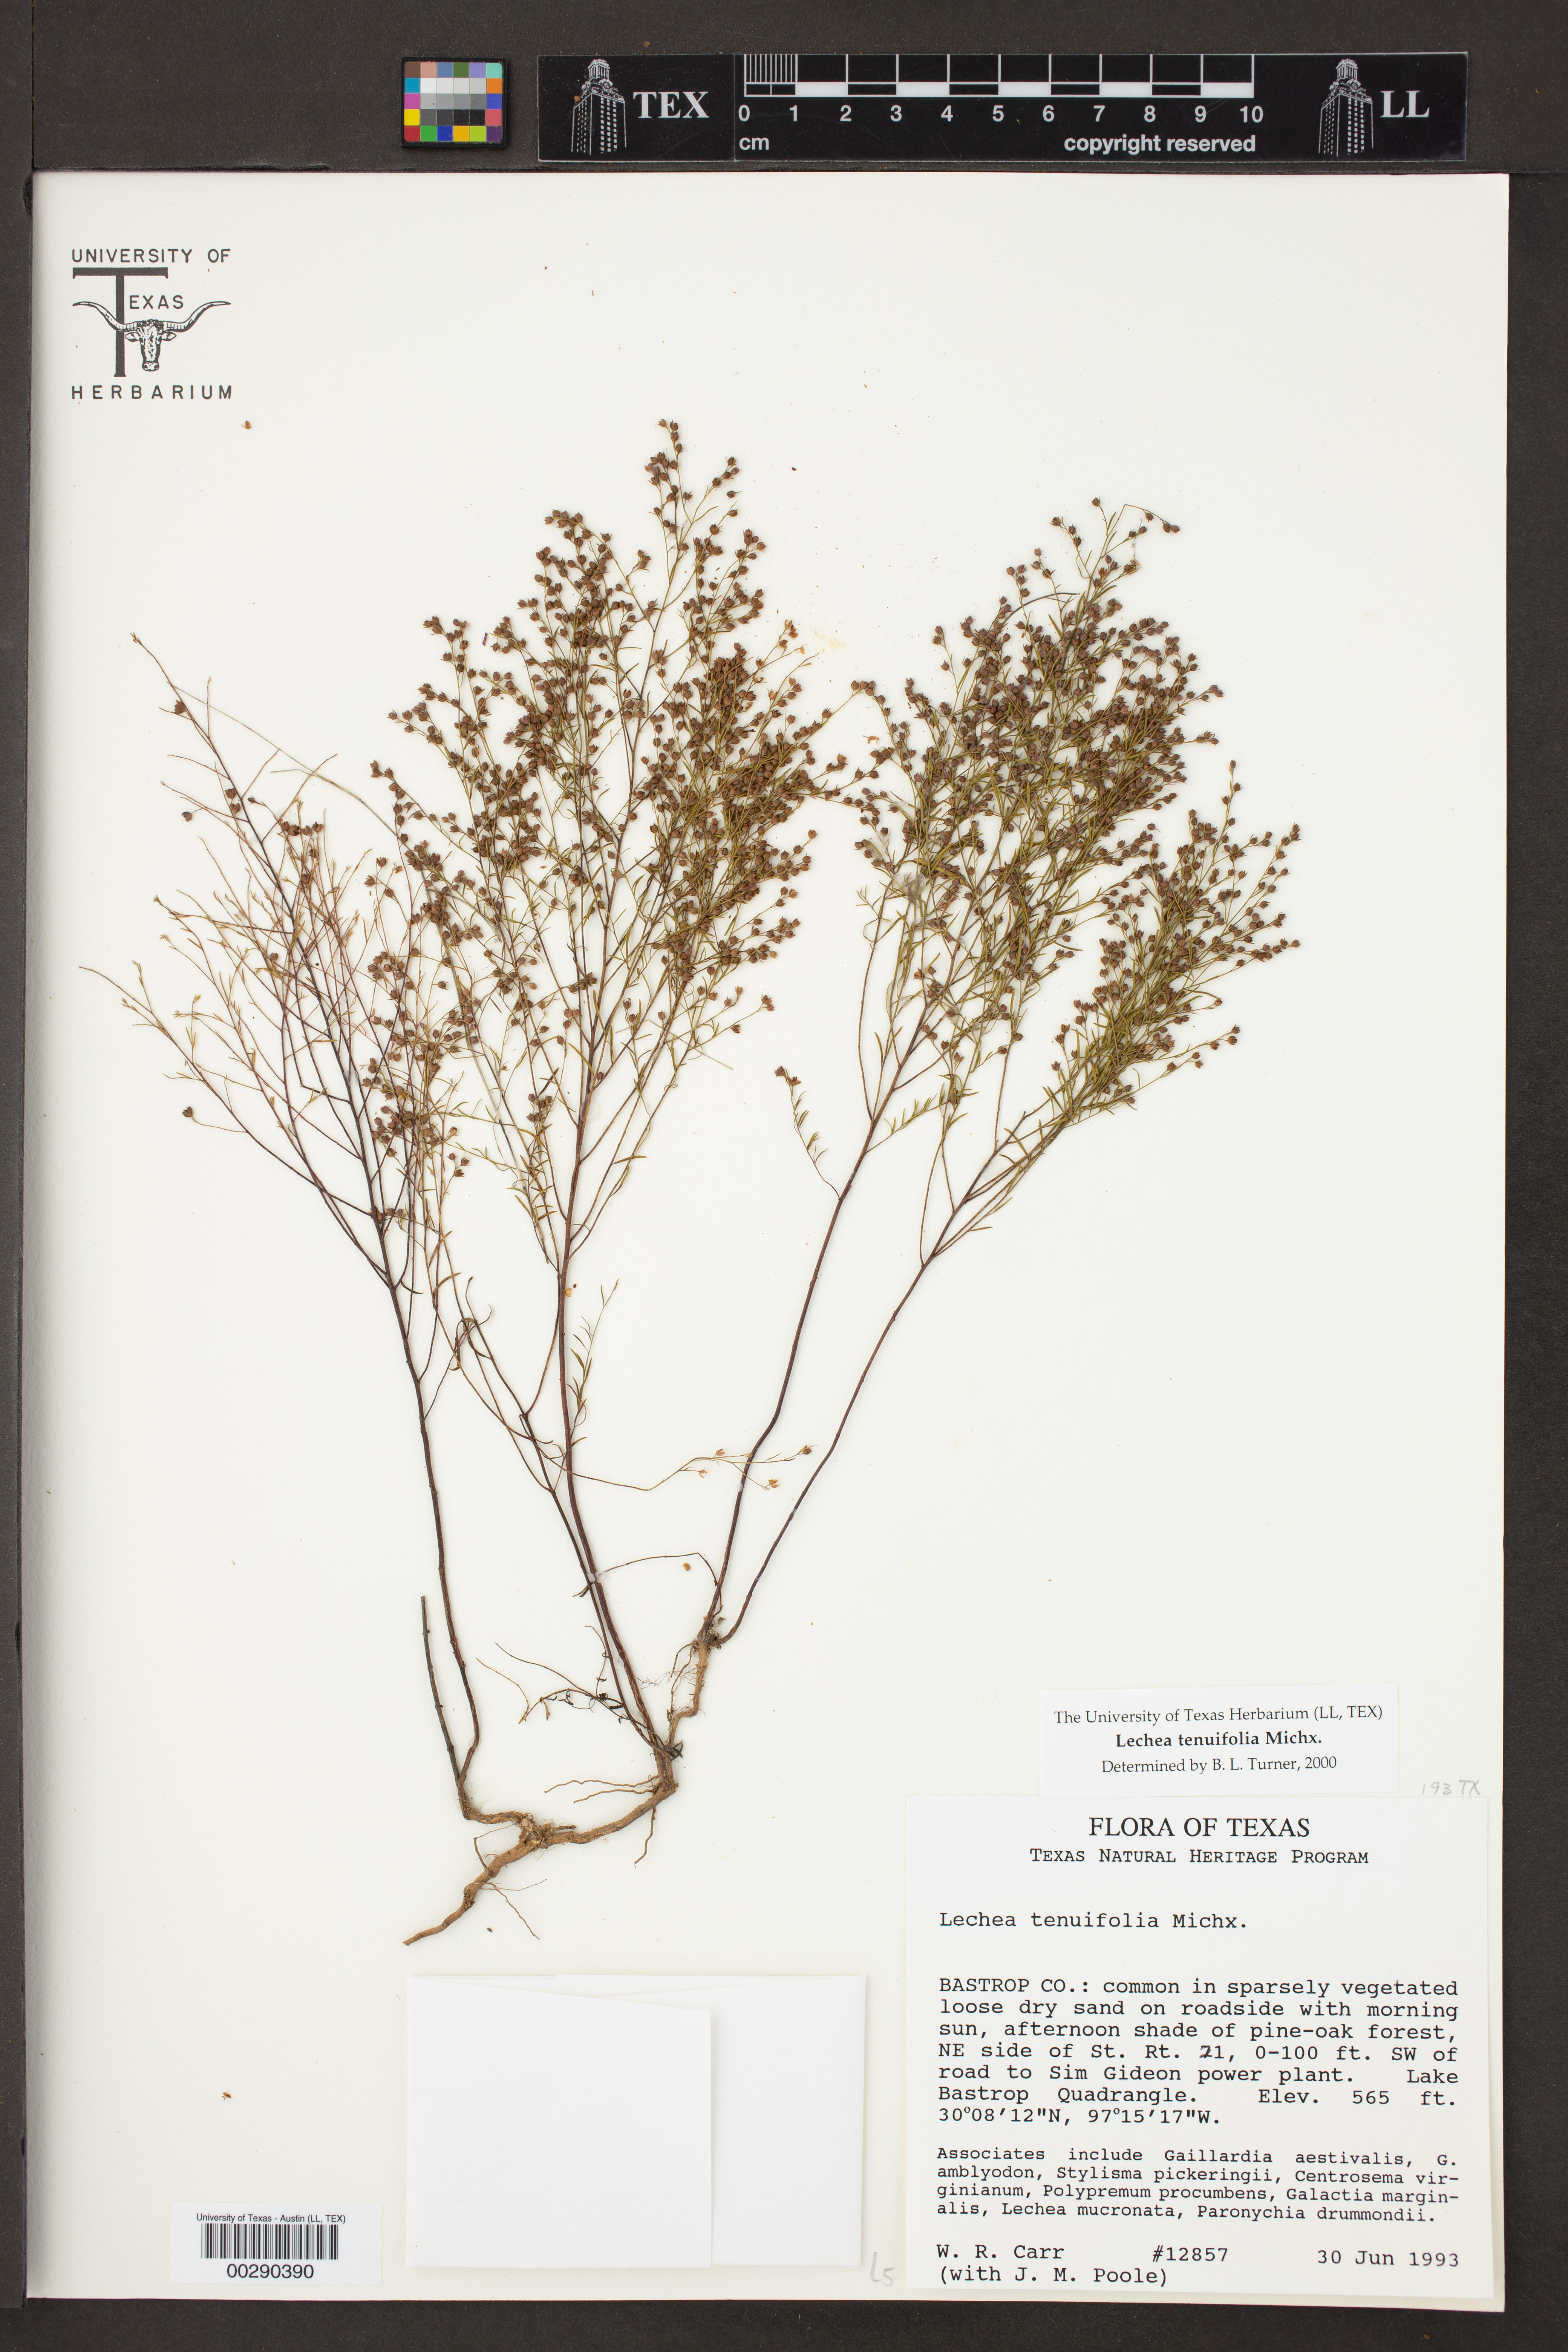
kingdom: Plantae
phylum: Tracheophyta
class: Magnoliopsida
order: Malvales
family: Cistaceae
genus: Lechea
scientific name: Lechea tenuifolia
